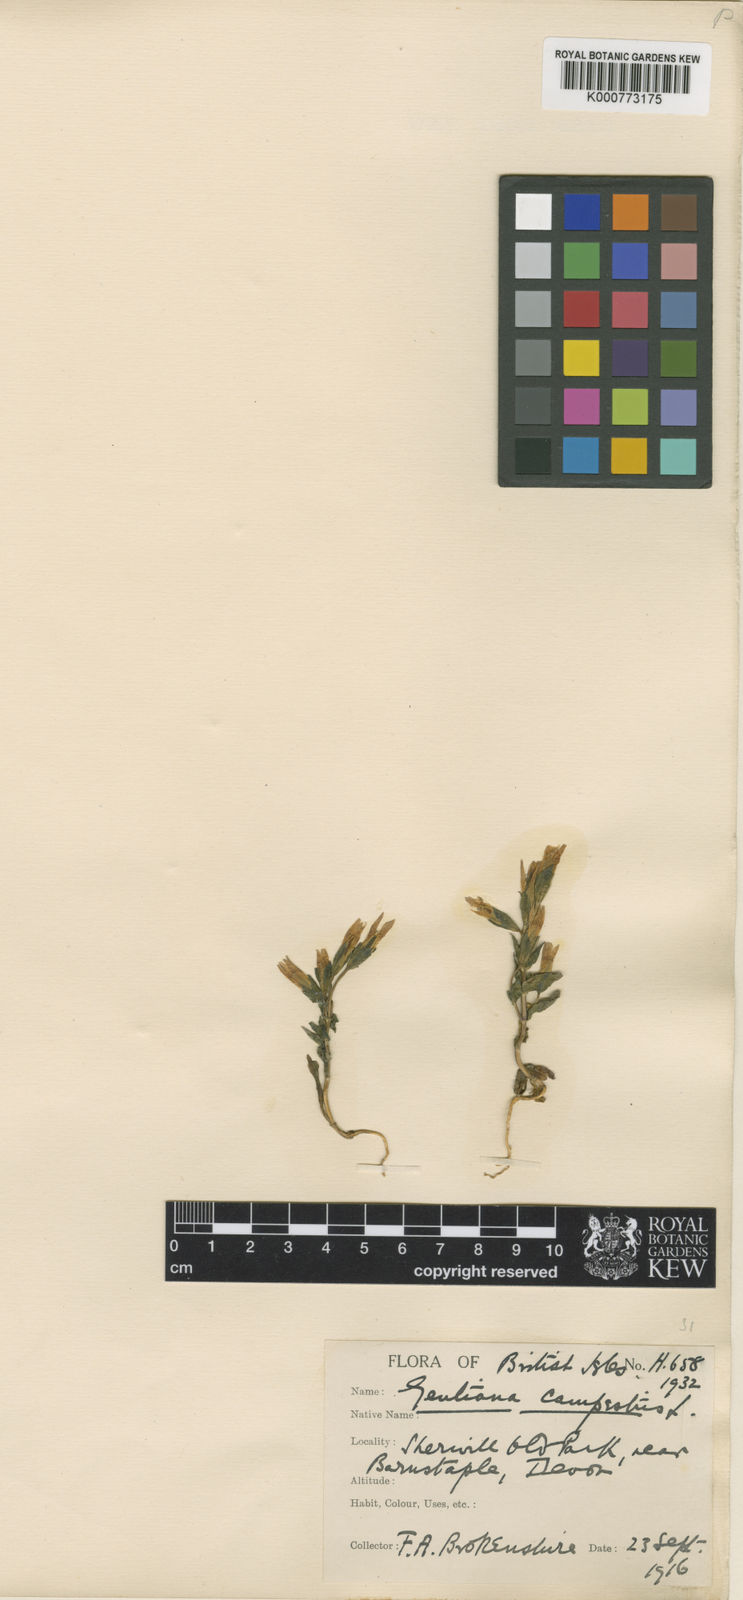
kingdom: Plantae
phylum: Tracheophyta
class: Magnoliopsida
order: Gentianales
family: Gentianaceae
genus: Gentianella
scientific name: Gentianella
